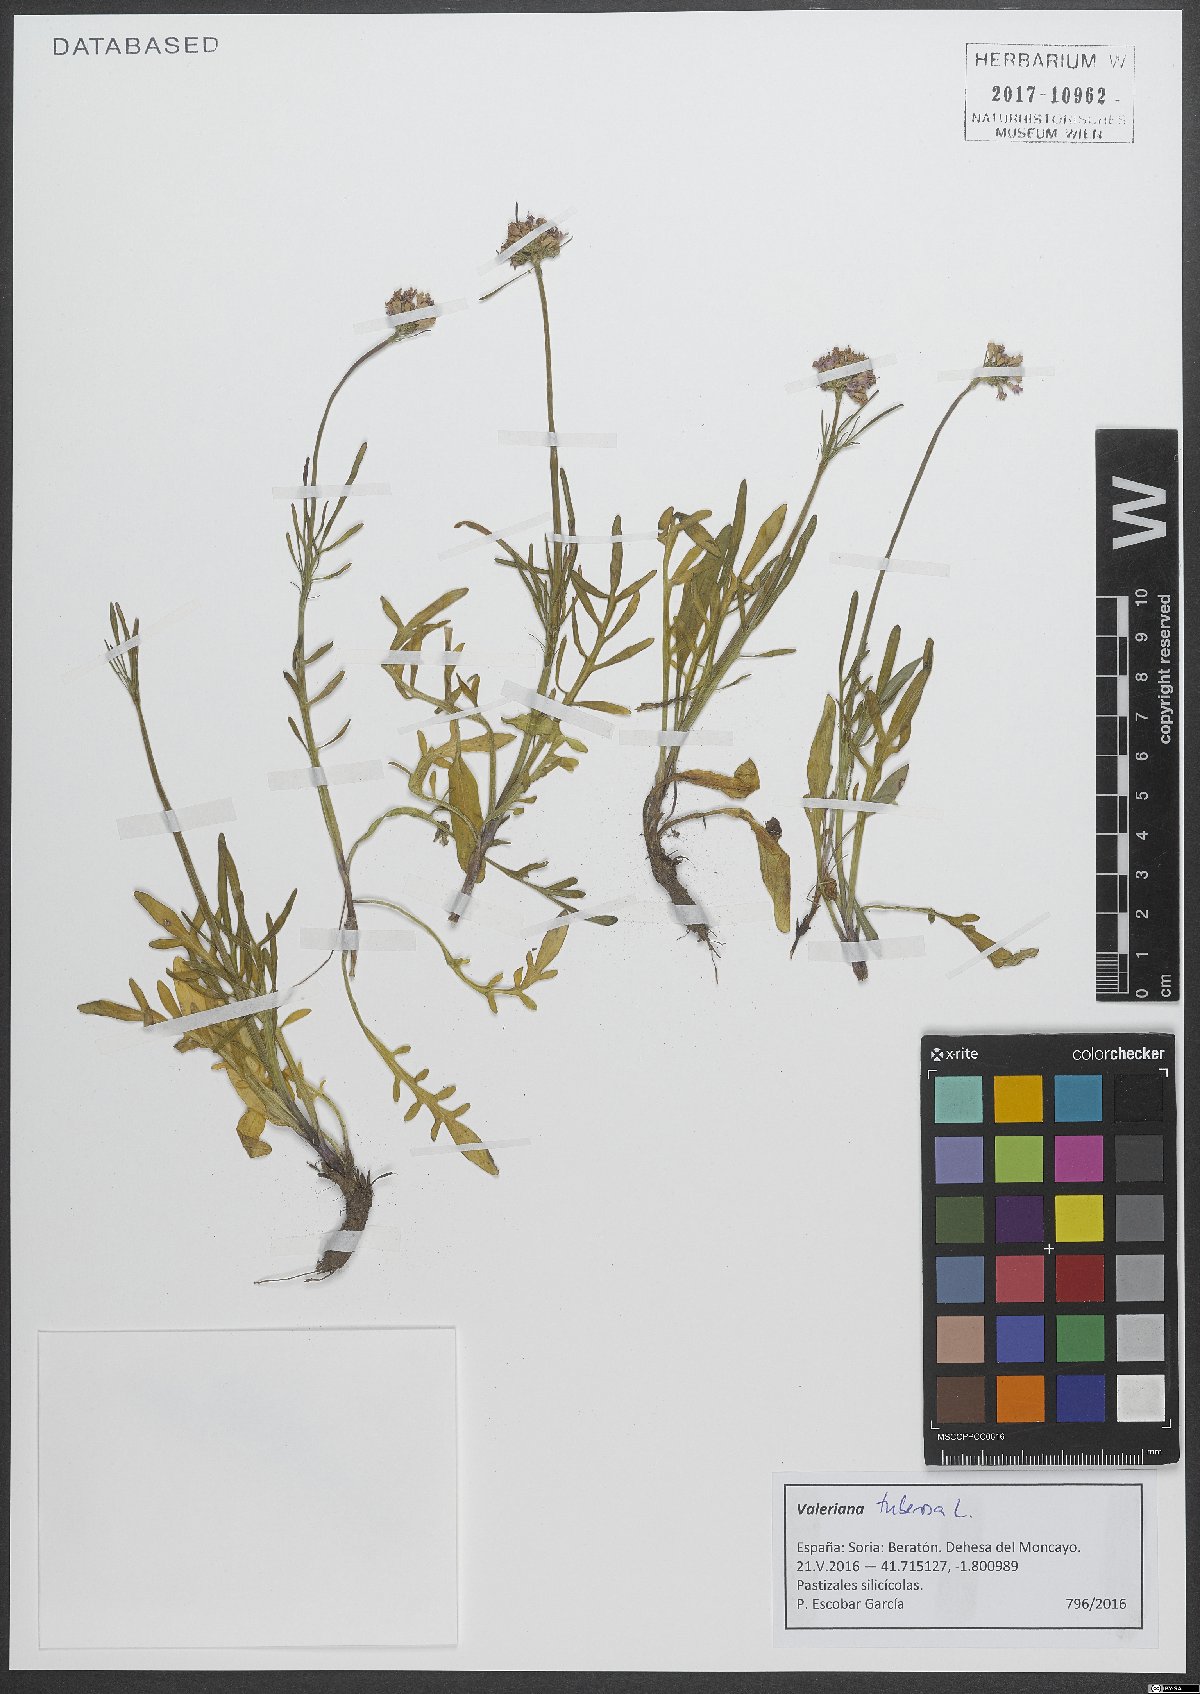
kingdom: Plantae
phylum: Tracheophyta
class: Magnoliopsida
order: Dipsacales
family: Caprifoliaceae
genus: Valeriana
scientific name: Valeriana tuberosa
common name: Tuberous valerian
